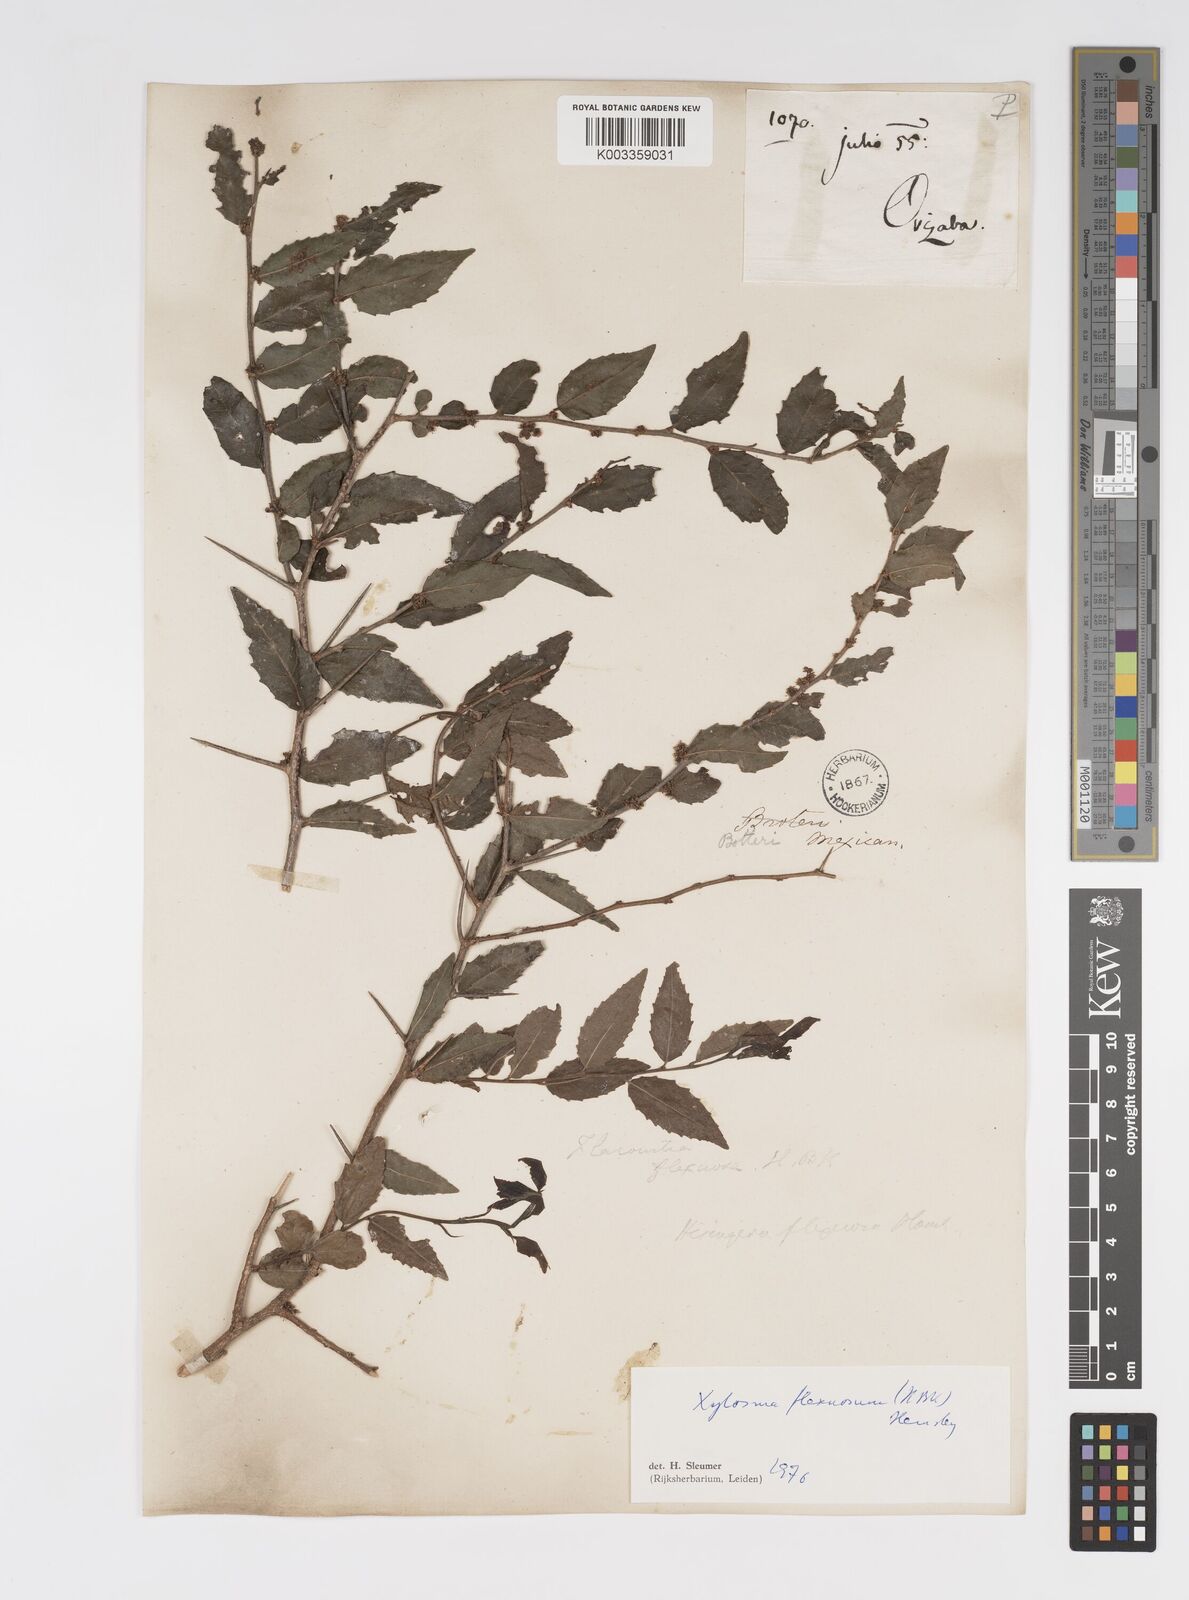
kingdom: Plantae
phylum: Tracheophyta
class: Magnoliopsida
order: Malpighiales
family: Salicaceae
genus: Xylosma
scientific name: Xylosma flexuosa
